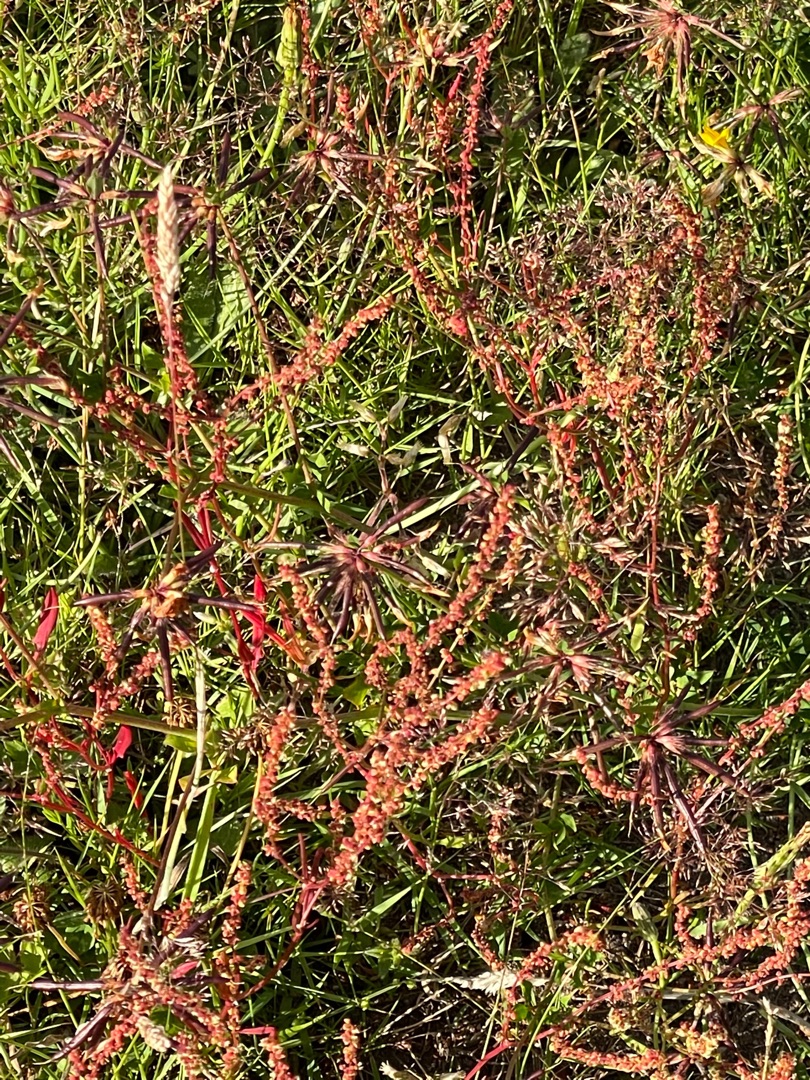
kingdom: Plantae
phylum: Tracheophyta
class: Magnoliopsida
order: Caryophyllales
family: Polygonaceae
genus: Rumex
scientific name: Rumex acetosella
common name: Rødknæ
